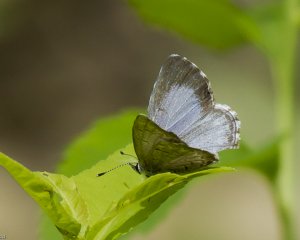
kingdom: Animalia
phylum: Arthropoda
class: Insecta
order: Lepidoptera
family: Lycaenidae
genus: Celastrina
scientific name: Celastrina lucia
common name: Northern Spring Azure
